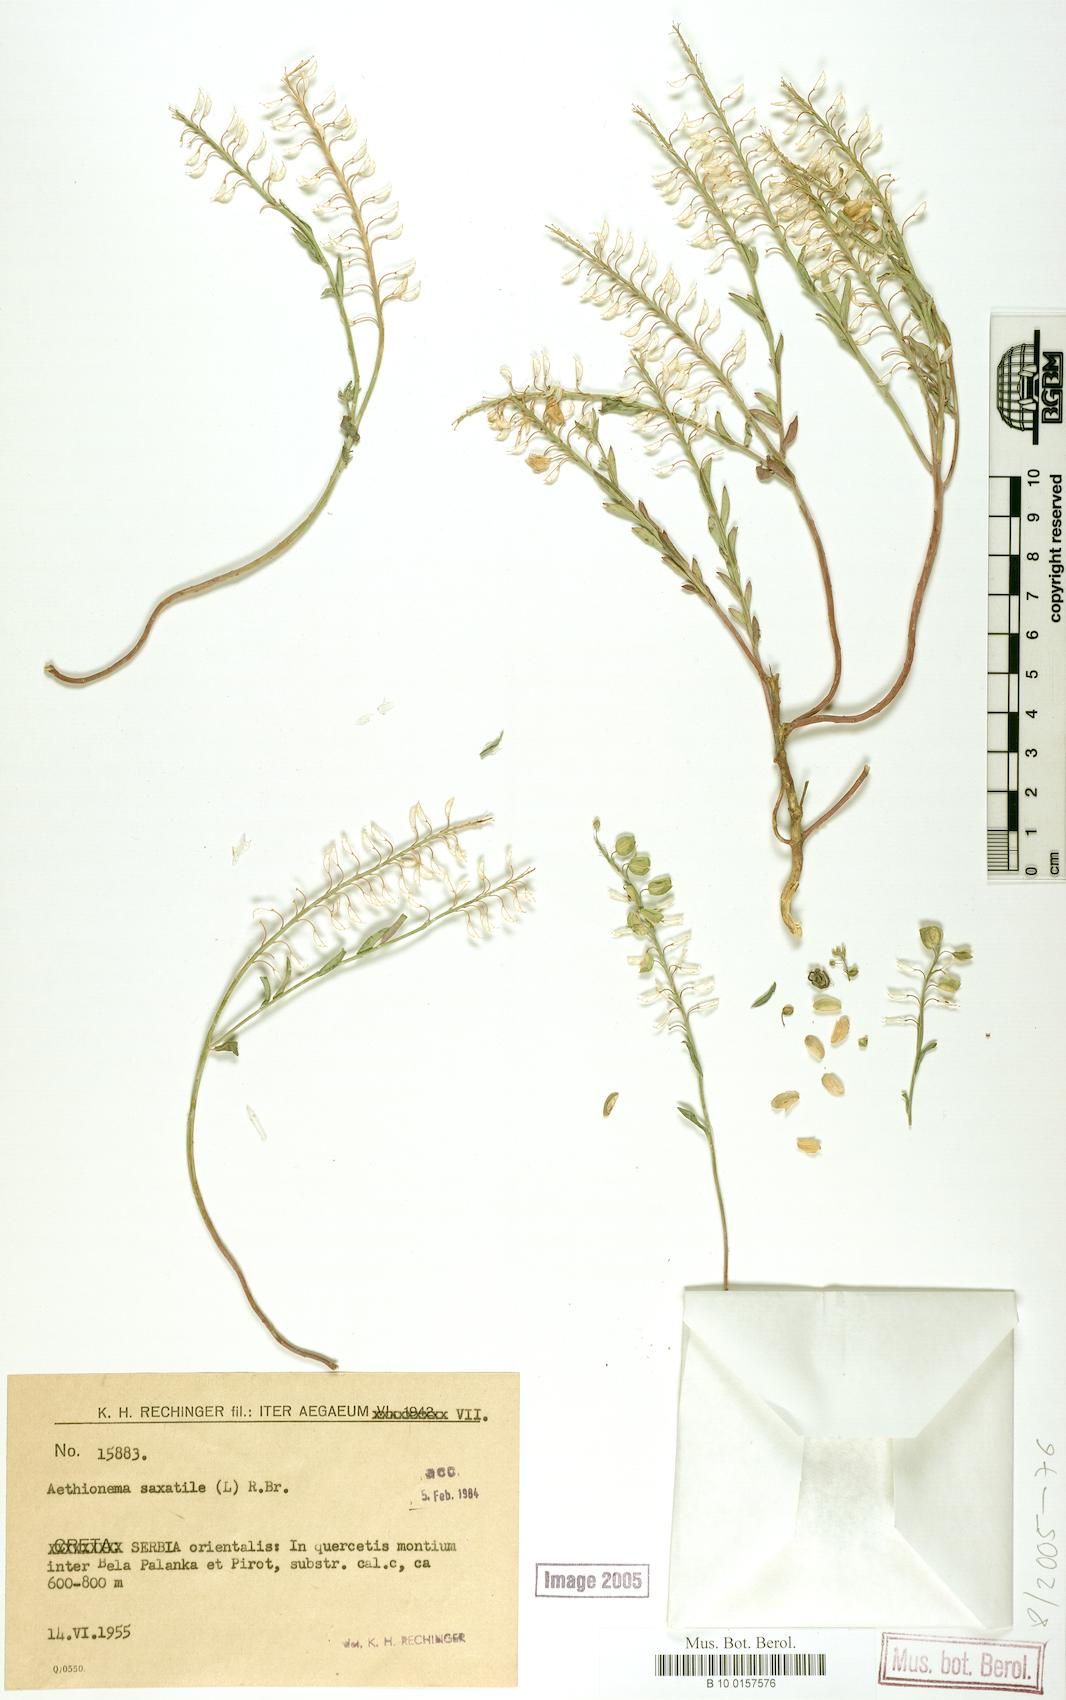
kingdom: Plantae
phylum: Tracheophyta
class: Magnoliopsida
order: Brassicales
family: Brassicaceae
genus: Aethionema
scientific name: Aethionema saxatile
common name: Burnt candytuft
